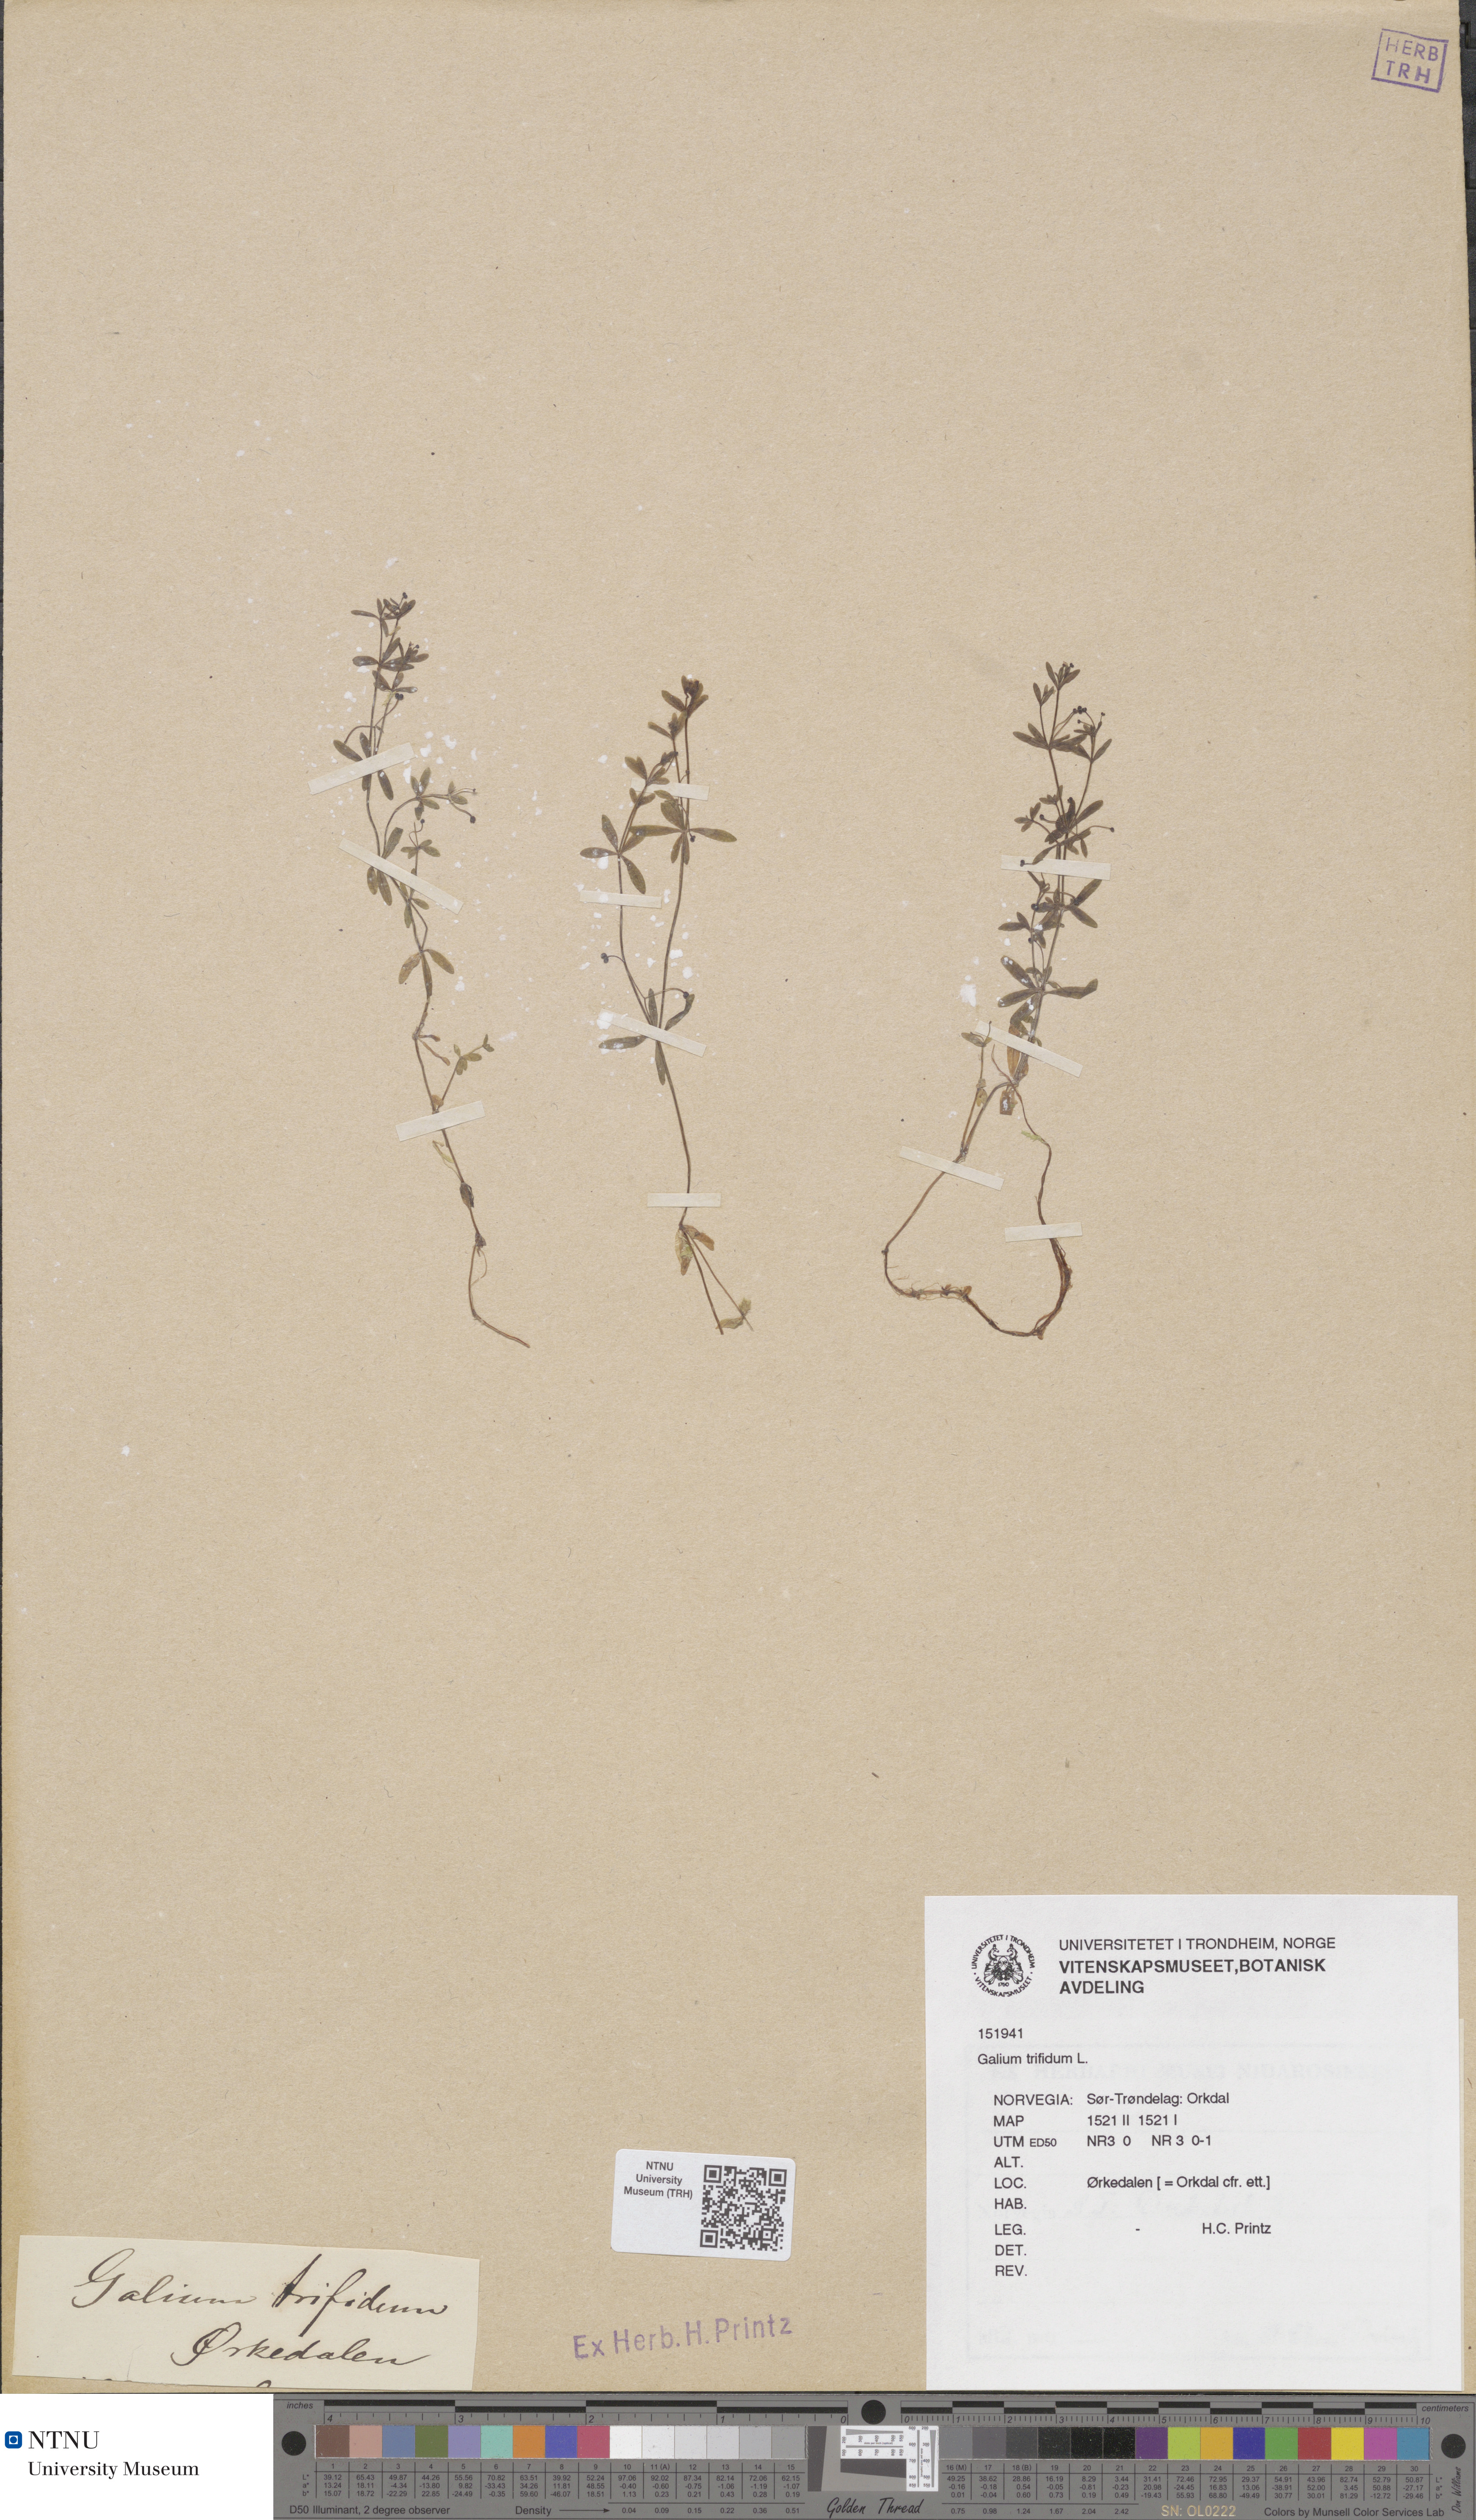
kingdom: Plantae
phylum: Tracheophyta
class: Magnoliopsida
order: Gentianales
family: Rubiaceae
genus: Galium
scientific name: Galium trifidum
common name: Small bedstraw
